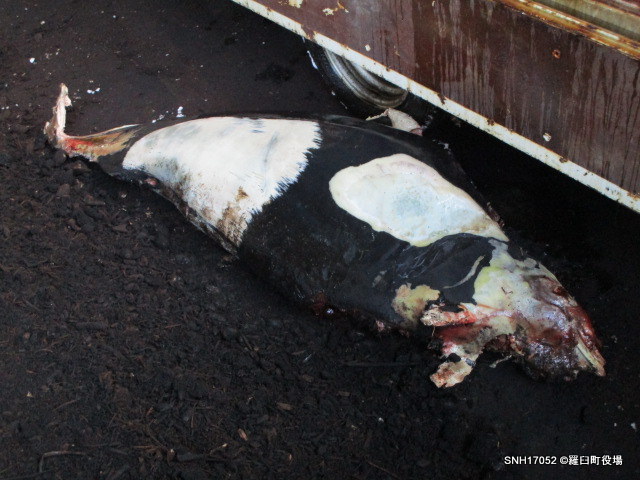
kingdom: Animalia
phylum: Chordata
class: Mammalia
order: Cetacea
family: Phocoenidae
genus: Phocoenoides
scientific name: Phocoenoides dalli
